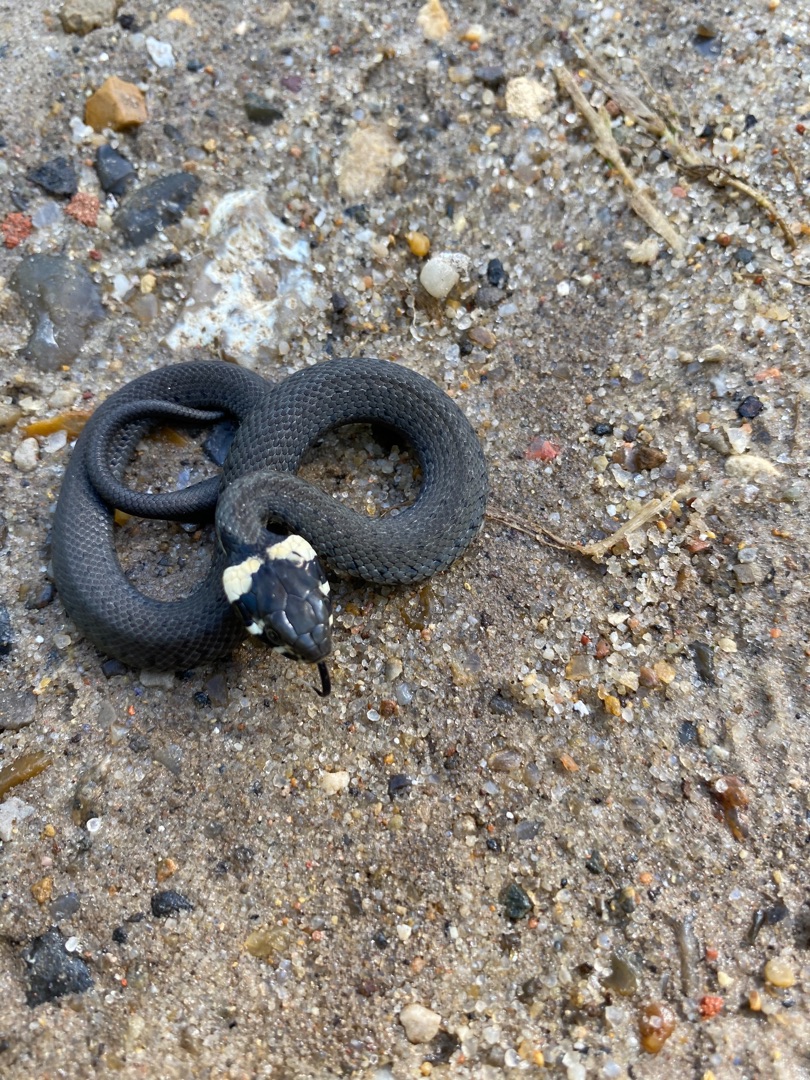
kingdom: Animalia
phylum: Chordata
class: Squamata
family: Colubridae
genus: Natrix
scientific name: Natrix natrix
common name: Snog
